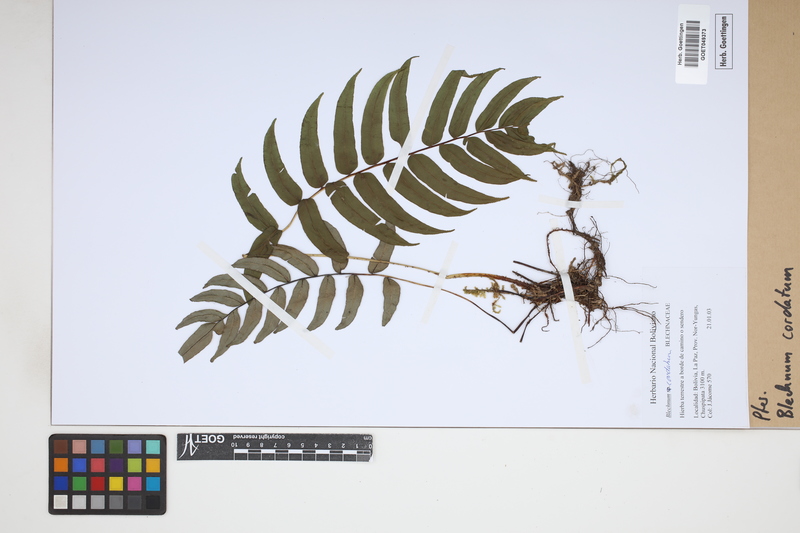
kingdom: Plantae
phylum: Tracheophyta
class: Polypodiopsida
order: Polypodiales
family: Blechnaceae
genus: Parablechnum
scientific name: Parablechnum cordatum
